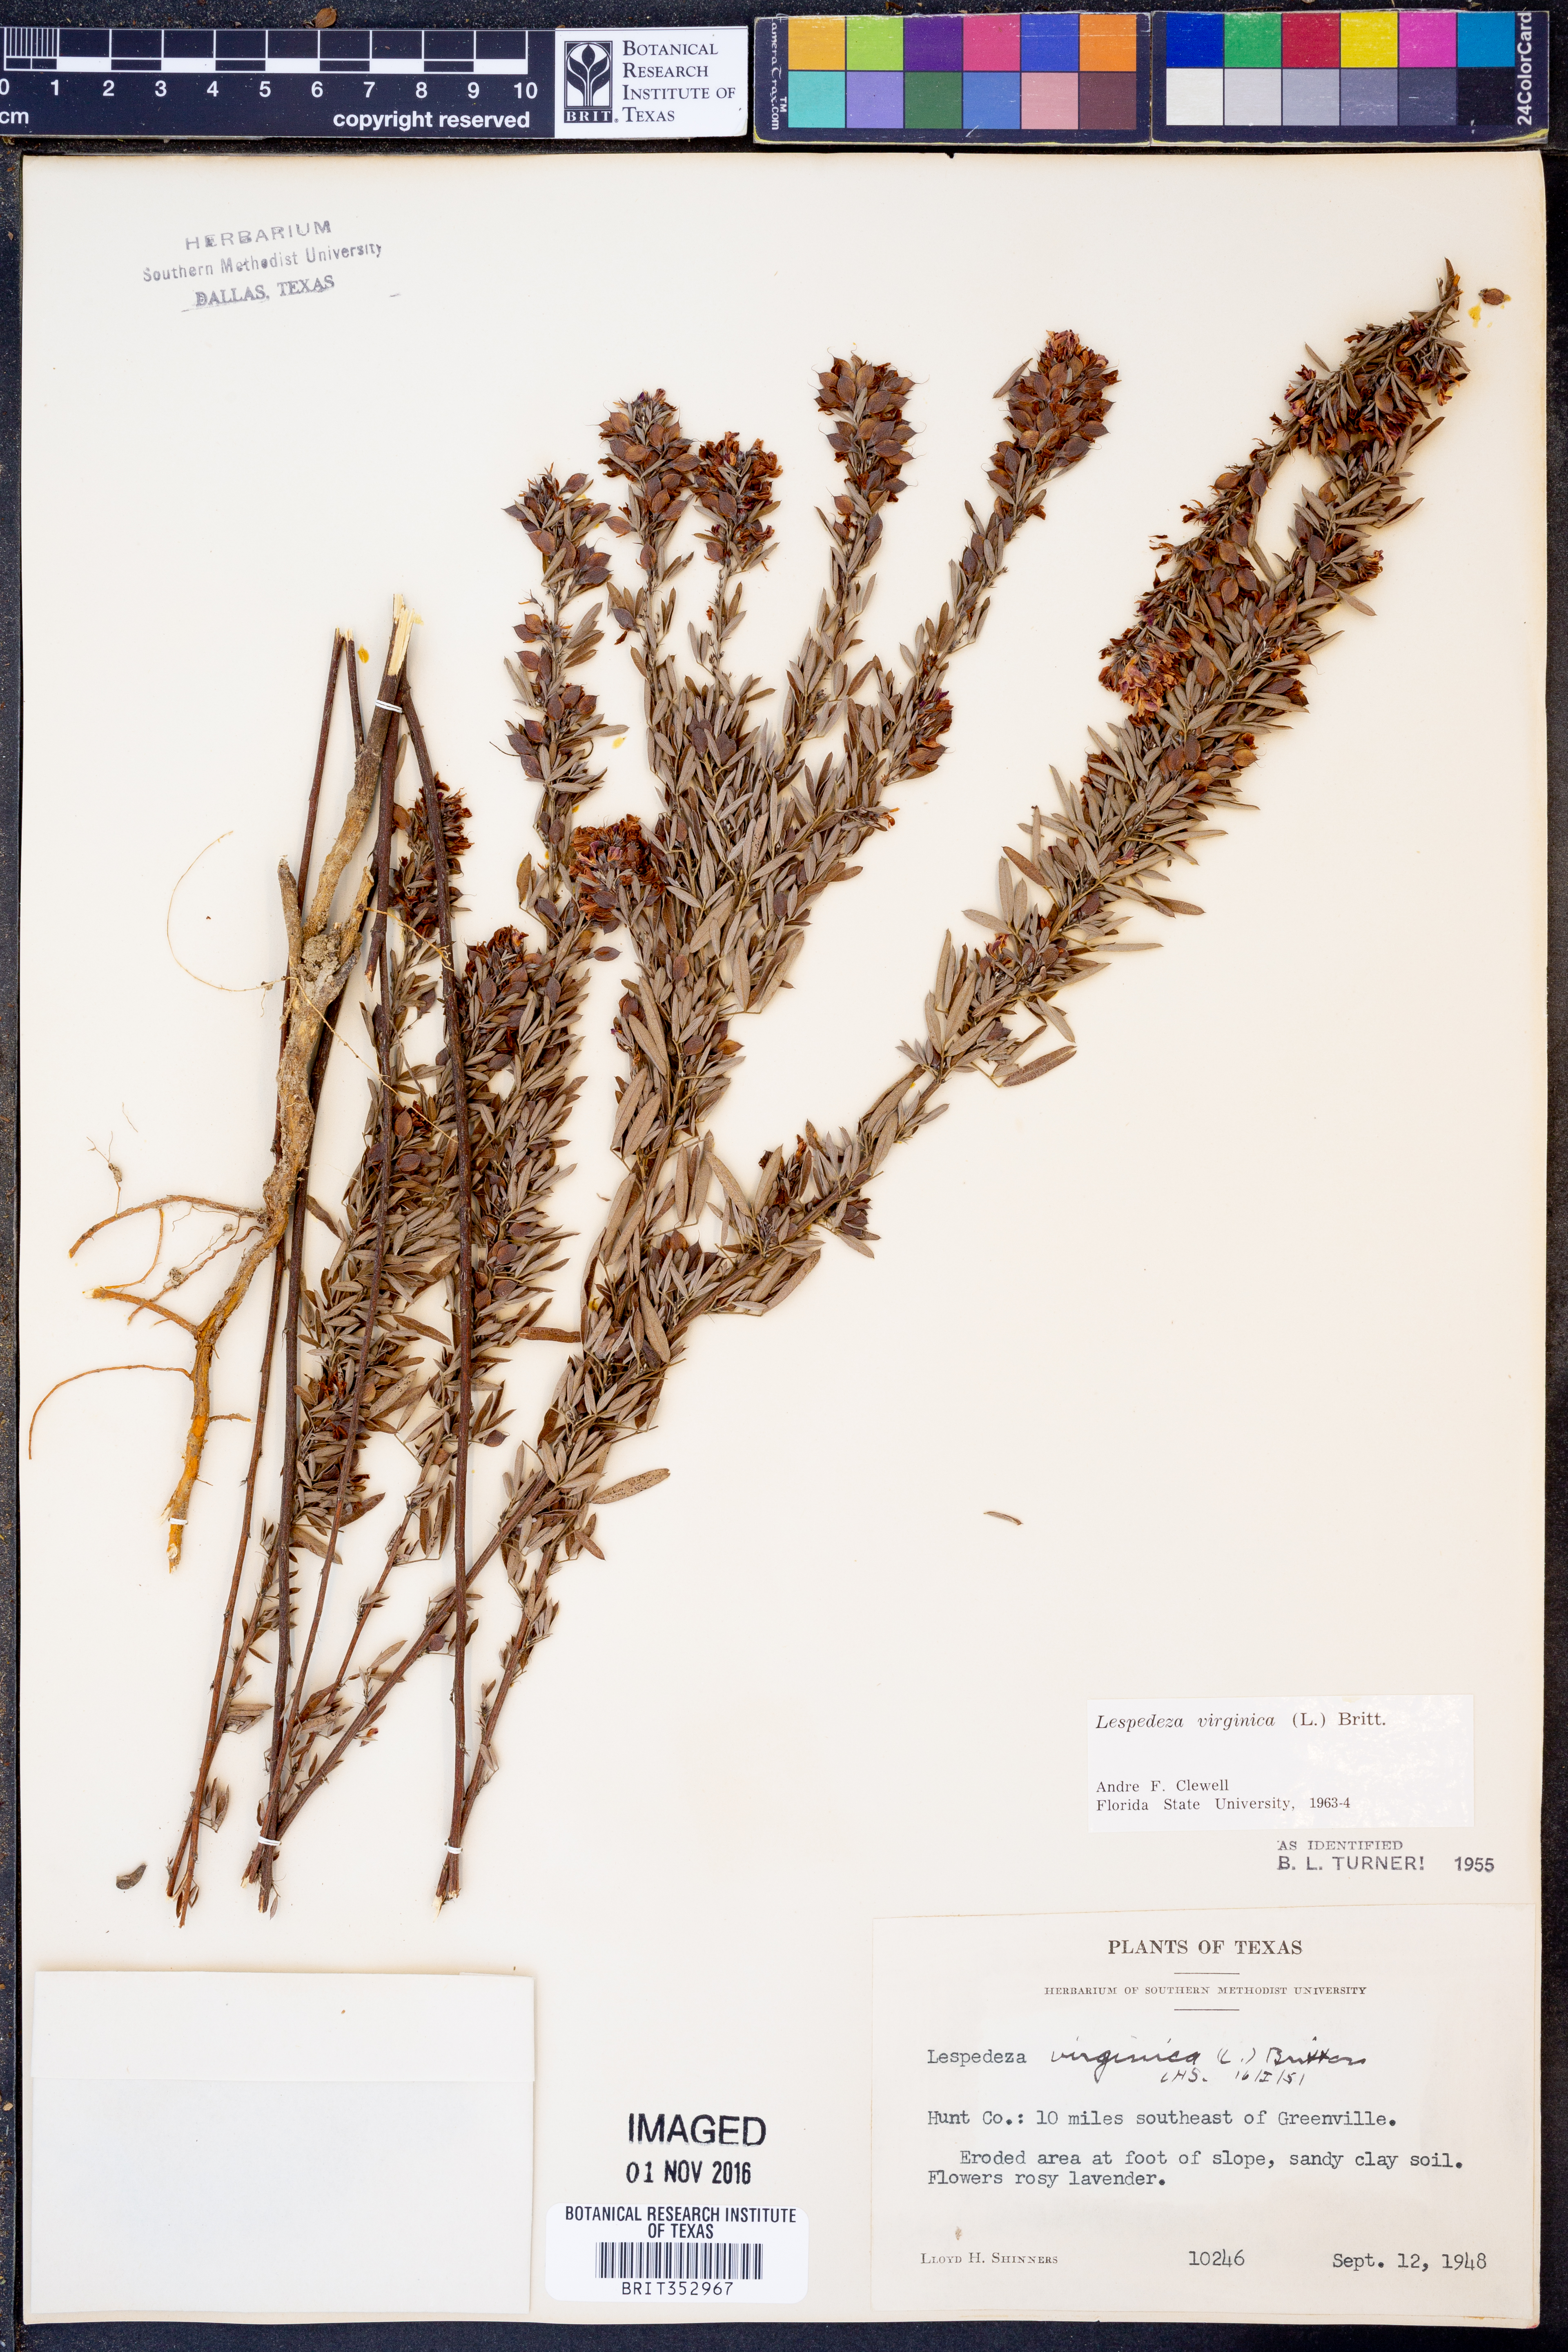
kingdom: Plantae
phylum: Tracheophyta
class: Magnoliopsida
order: Fabales
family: Fabaceae
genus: Lespedeza
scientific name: Lespedeza virginica
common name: Slender bush-clover
